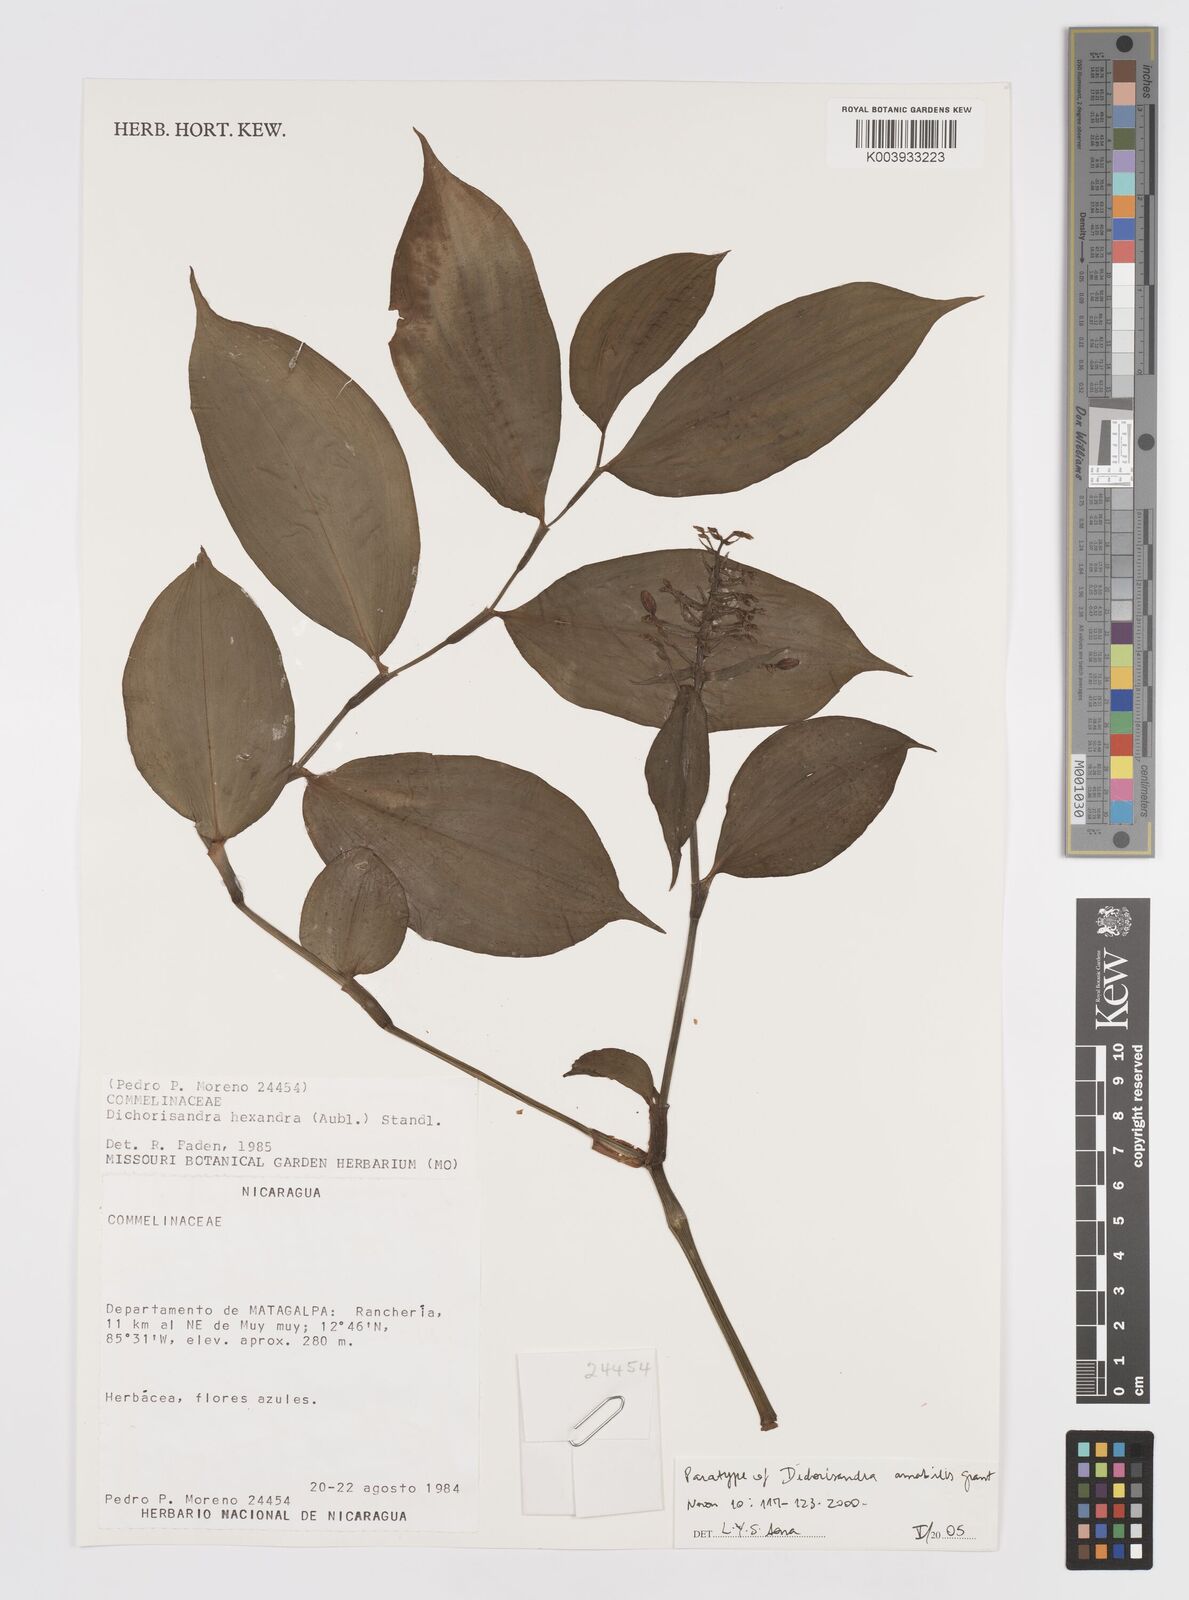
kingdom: Plantae
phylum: Tracheophyta
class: Liliopsida
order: Commelinales
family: Commelinaceae
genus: Dichorisandra
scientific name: Dichorisandra amabilis
